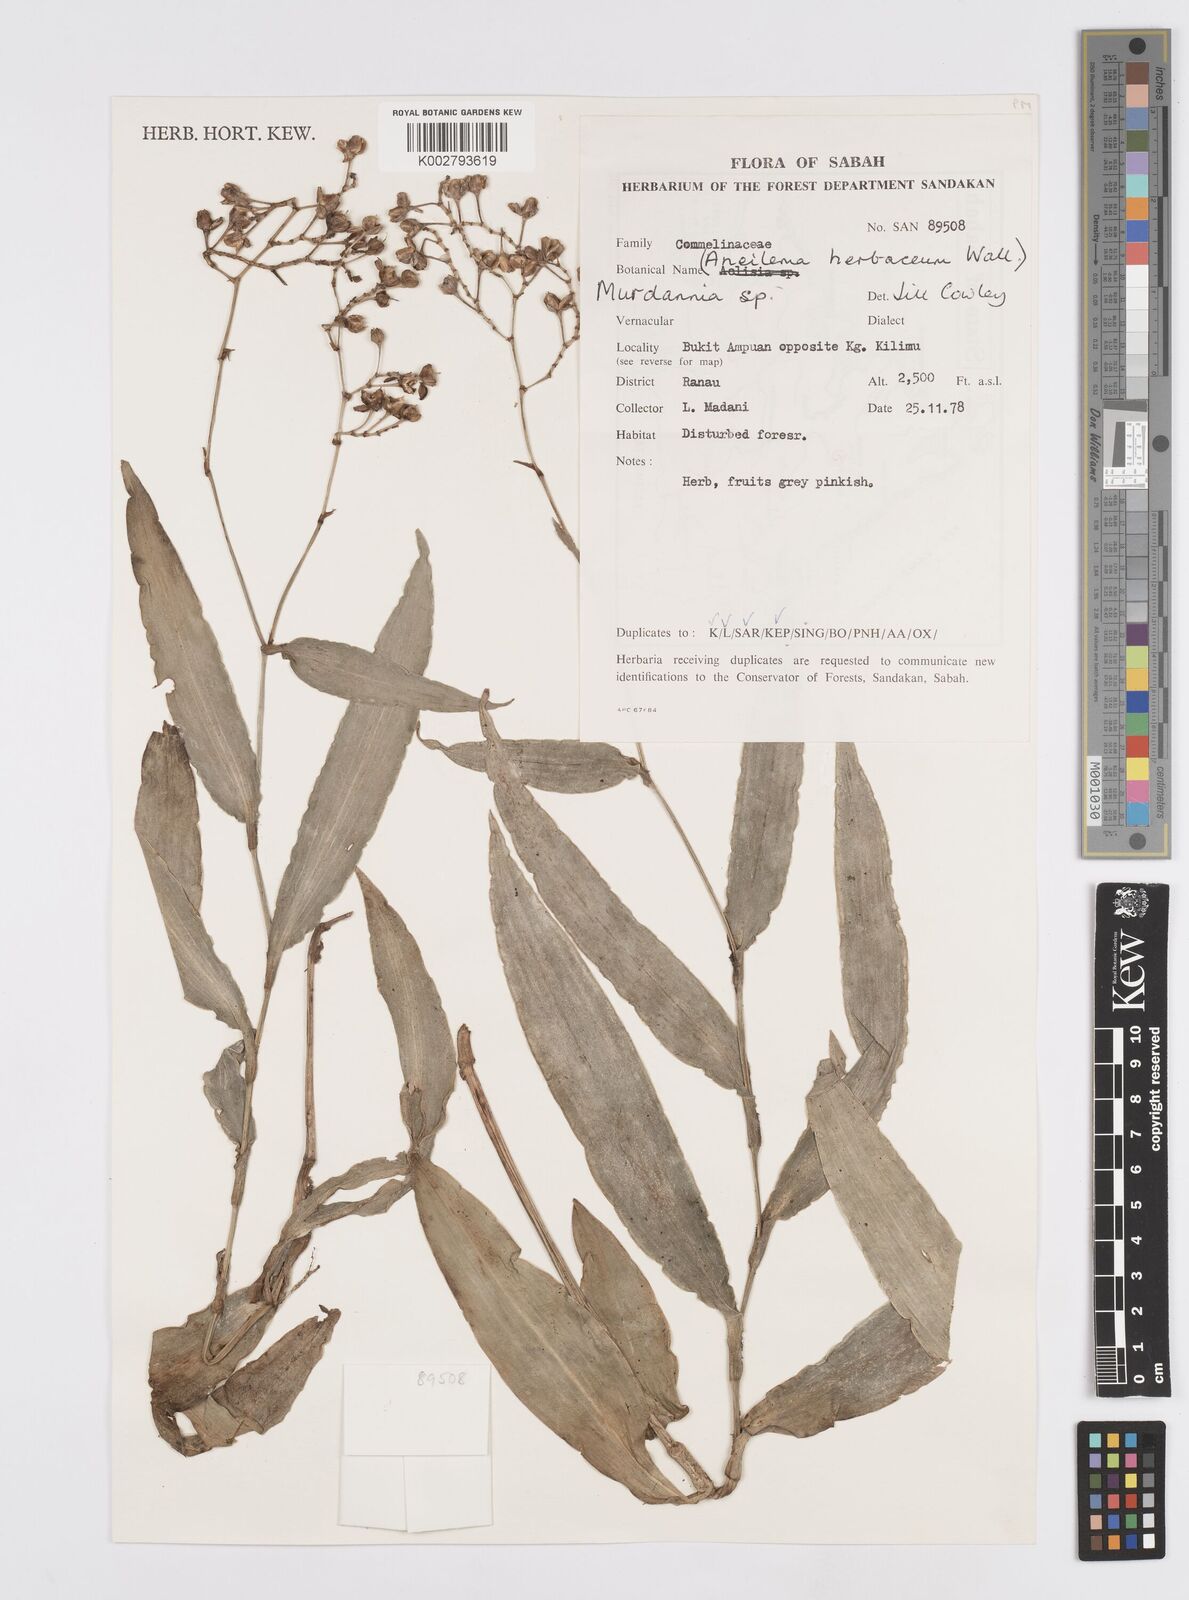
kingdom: Plantae
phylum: Tracheophyta
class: Liliopsida
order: Commelinales
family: Commelinaceae
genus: Murdannia
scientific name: Murdannia
